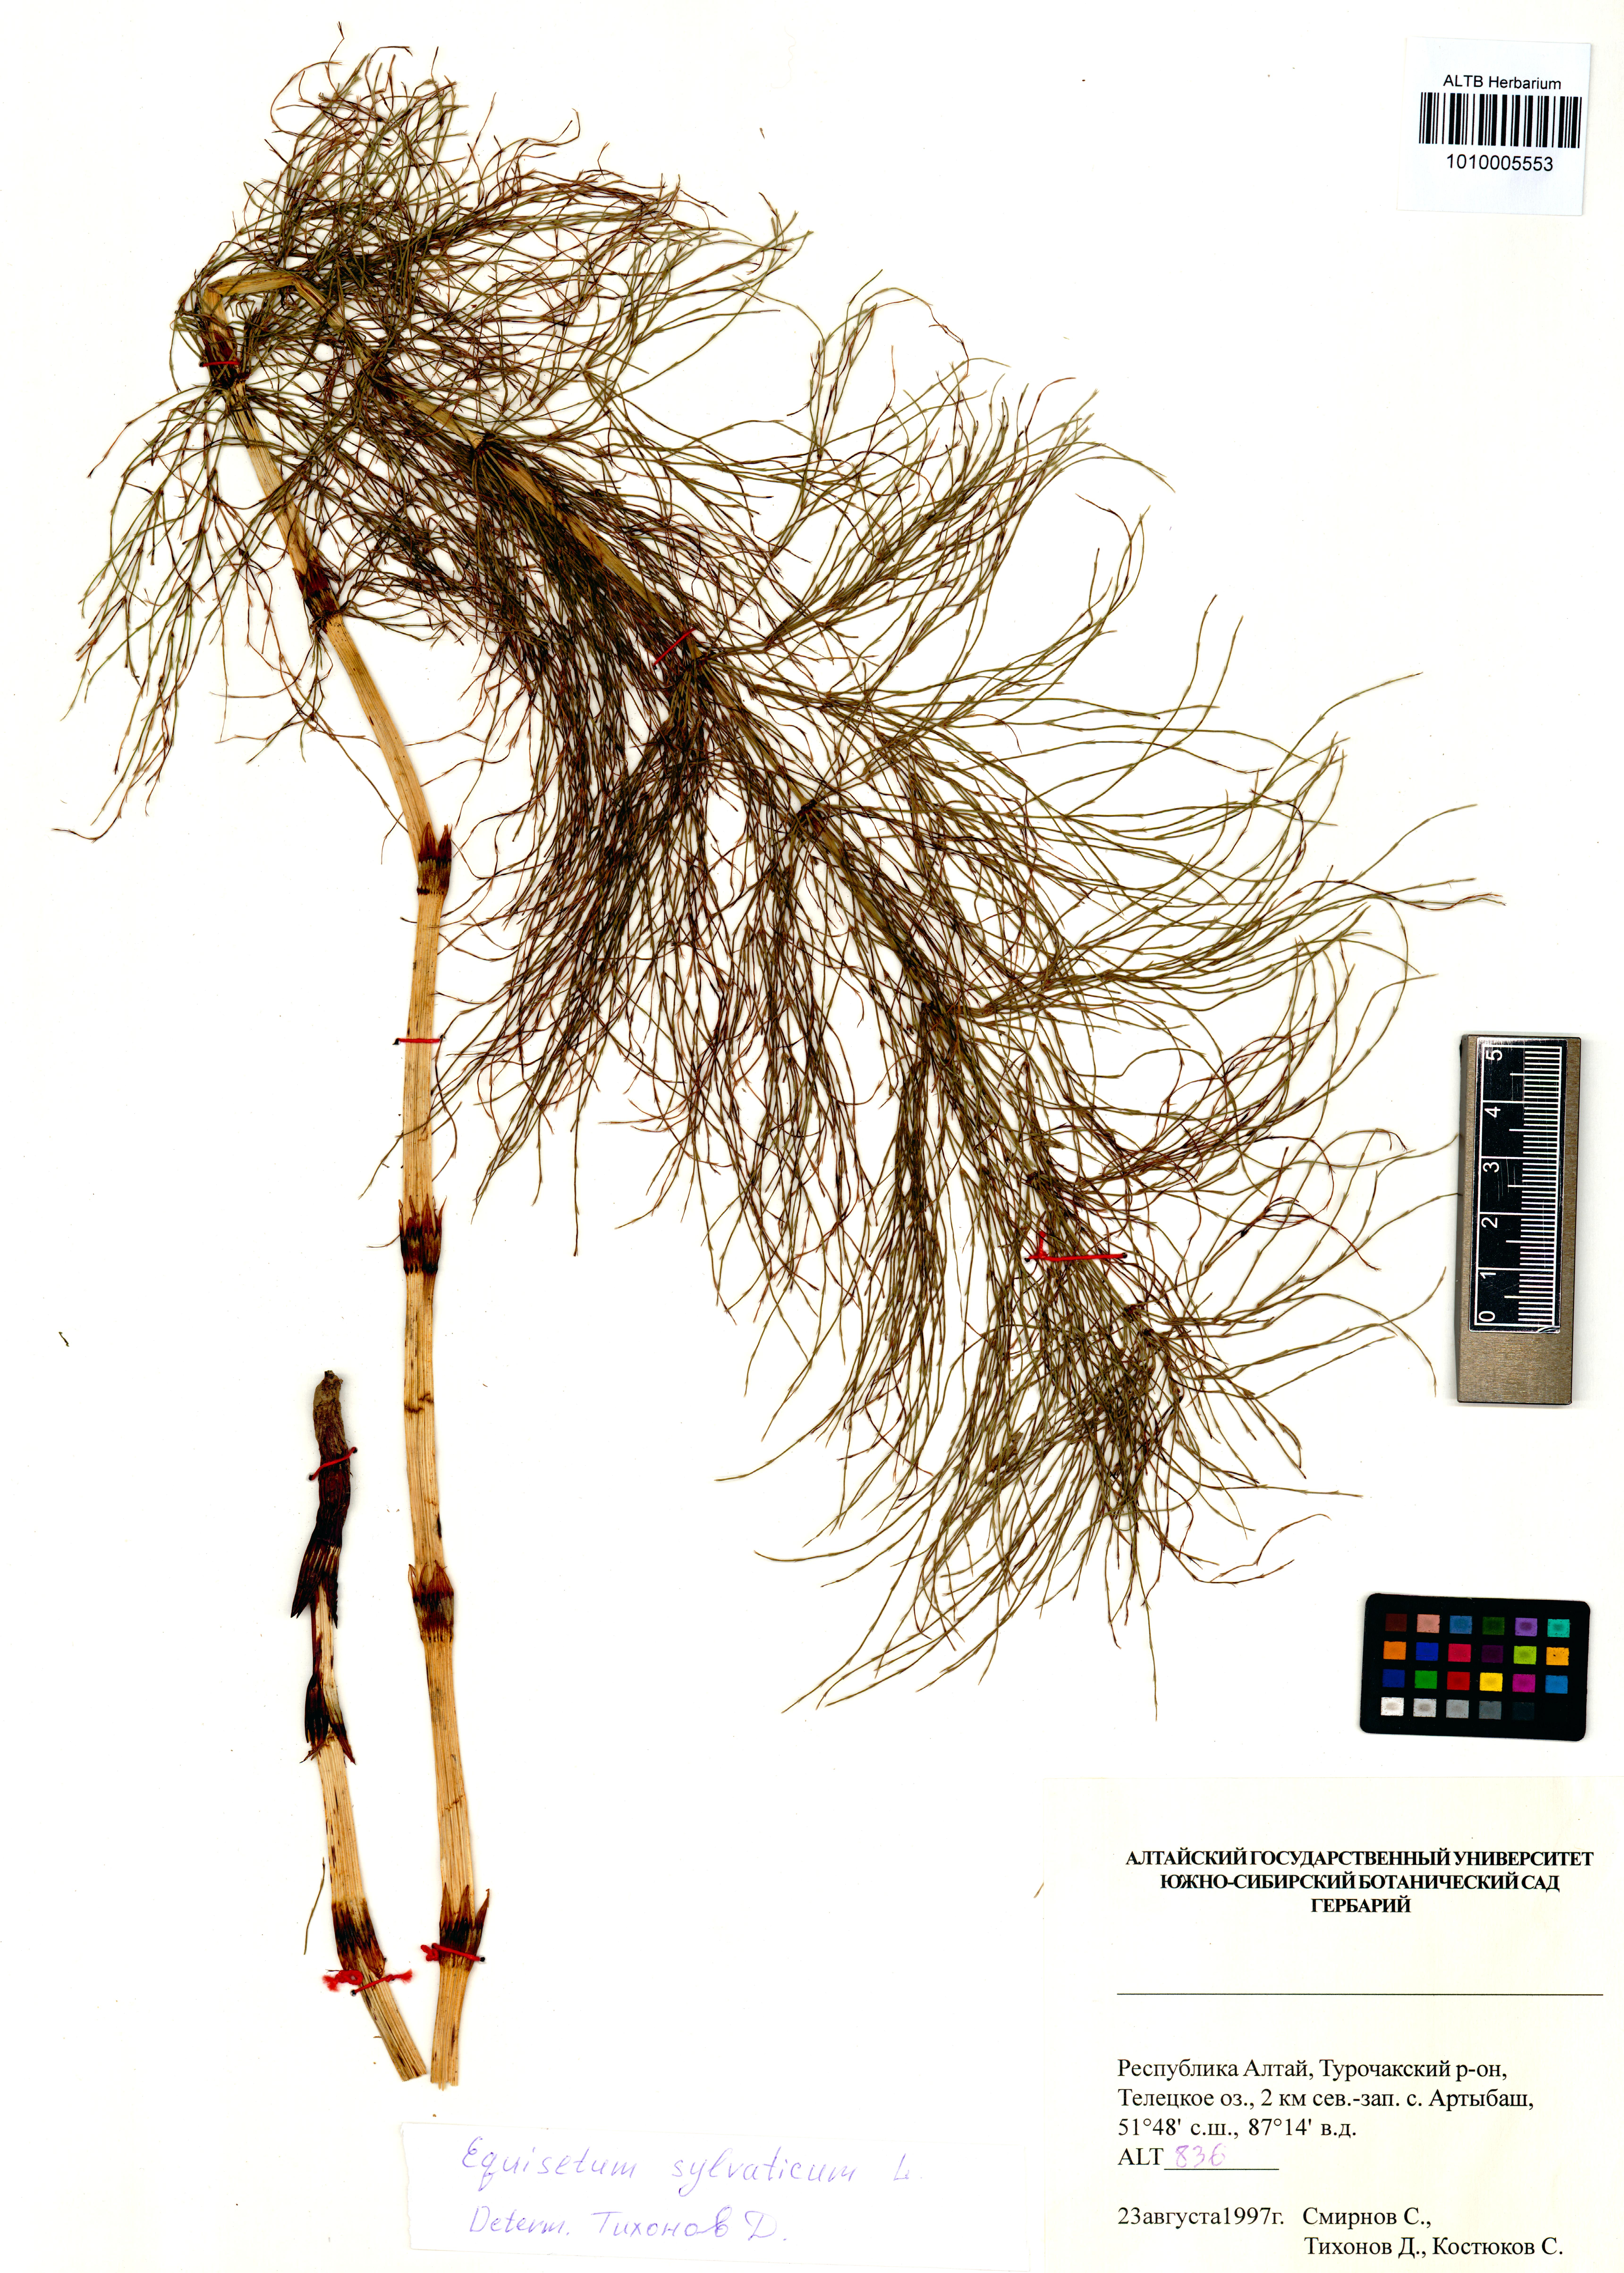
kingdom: Plantae
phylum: Tracheophyta
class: Polypodiopsida
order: Equisetales
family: Equisetaceae
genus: Equisetum
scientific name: Equisetum sylvaticum
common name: Wood horsetail
